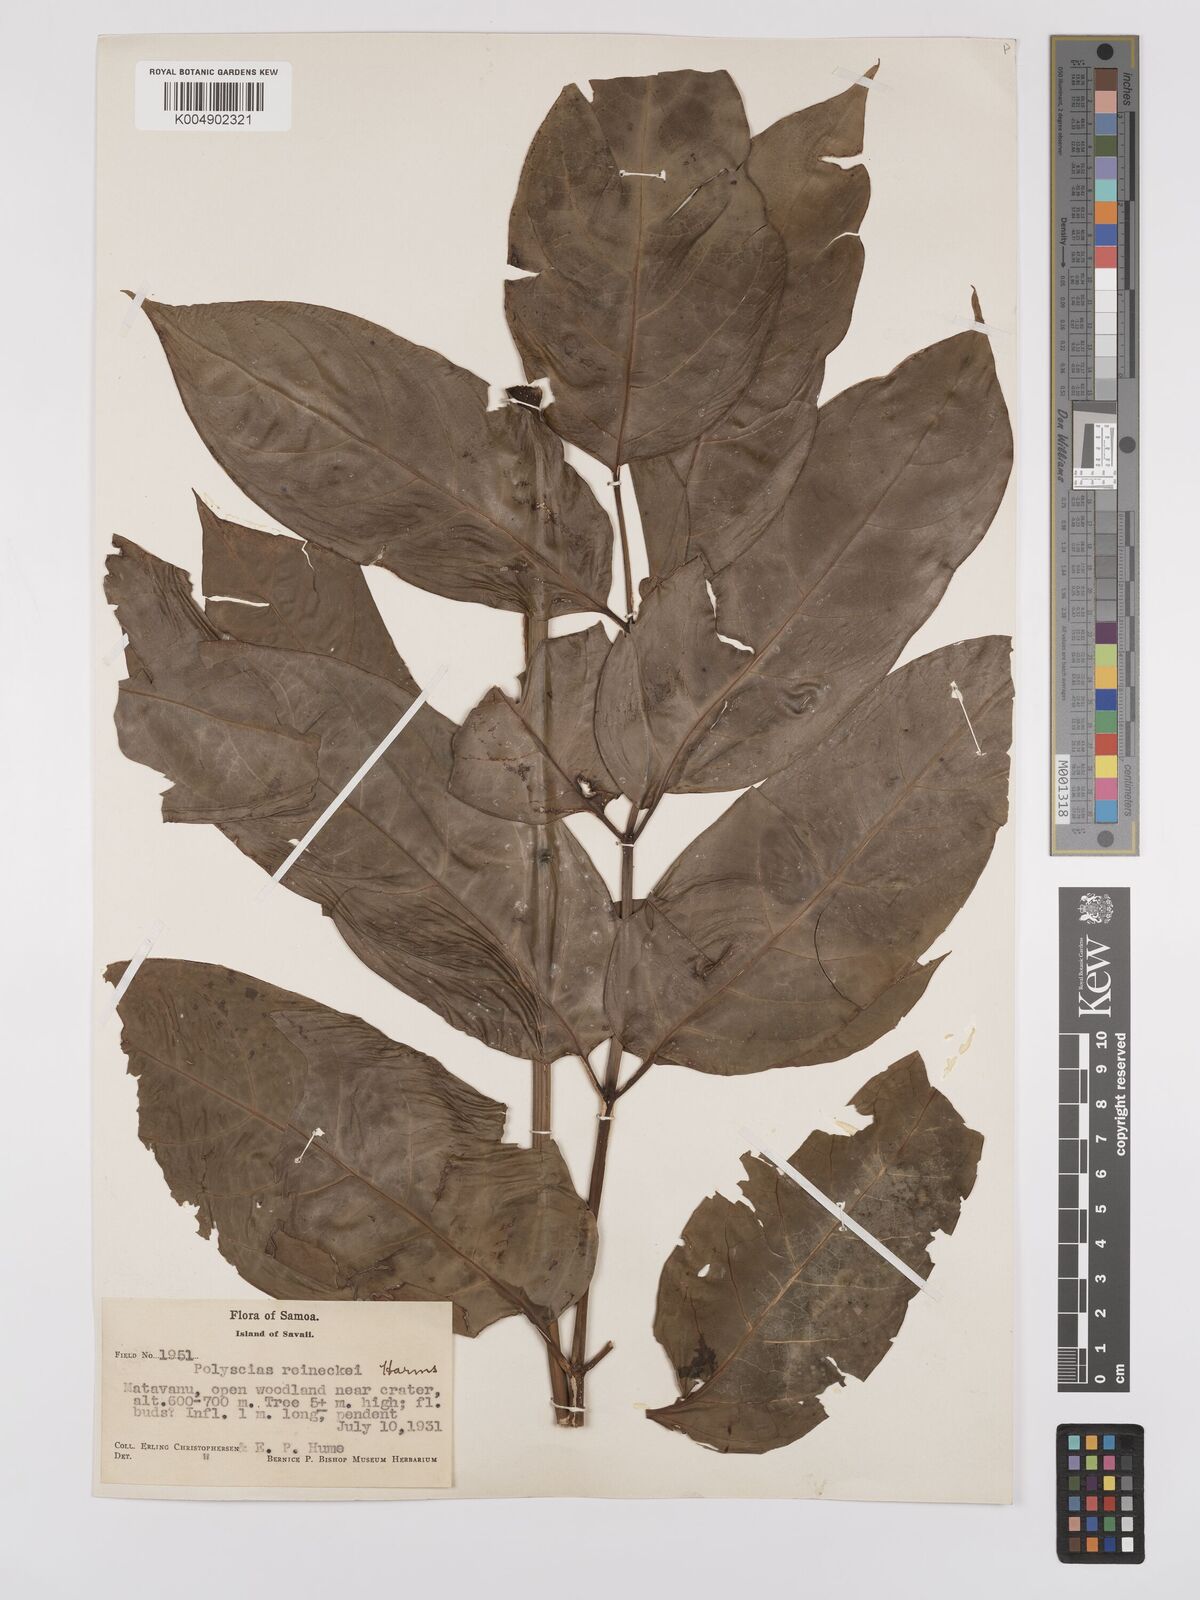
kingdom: Plantae
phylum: Tracheophyta
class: Magnoliopsida
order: Apiales
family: Araliaceae
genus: Polyscias
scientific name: Polyscias reineckei
